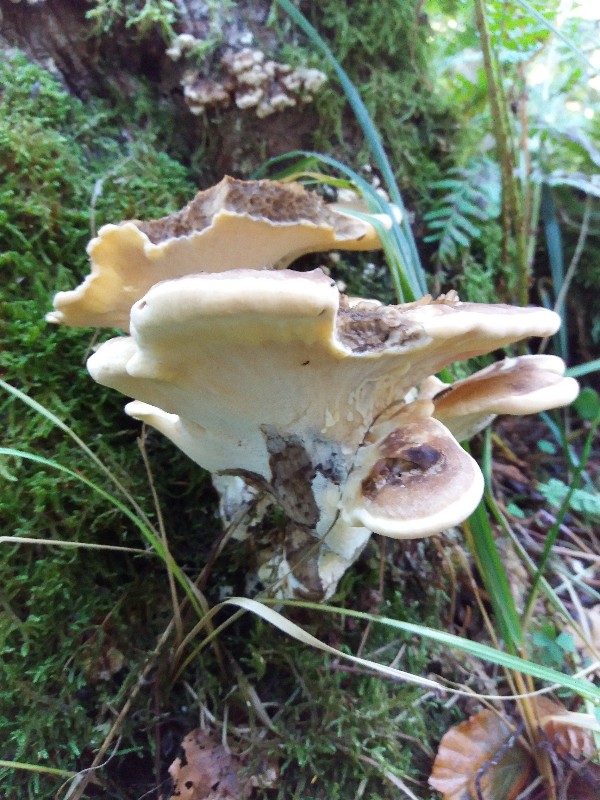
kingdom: Fungi
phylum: Basidiomycota
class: Agaricomycetes
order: Polyporales
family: Meripilaceae
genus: Meripilus
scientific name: Meripilus giganteus
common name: kæmpeporesvamp
